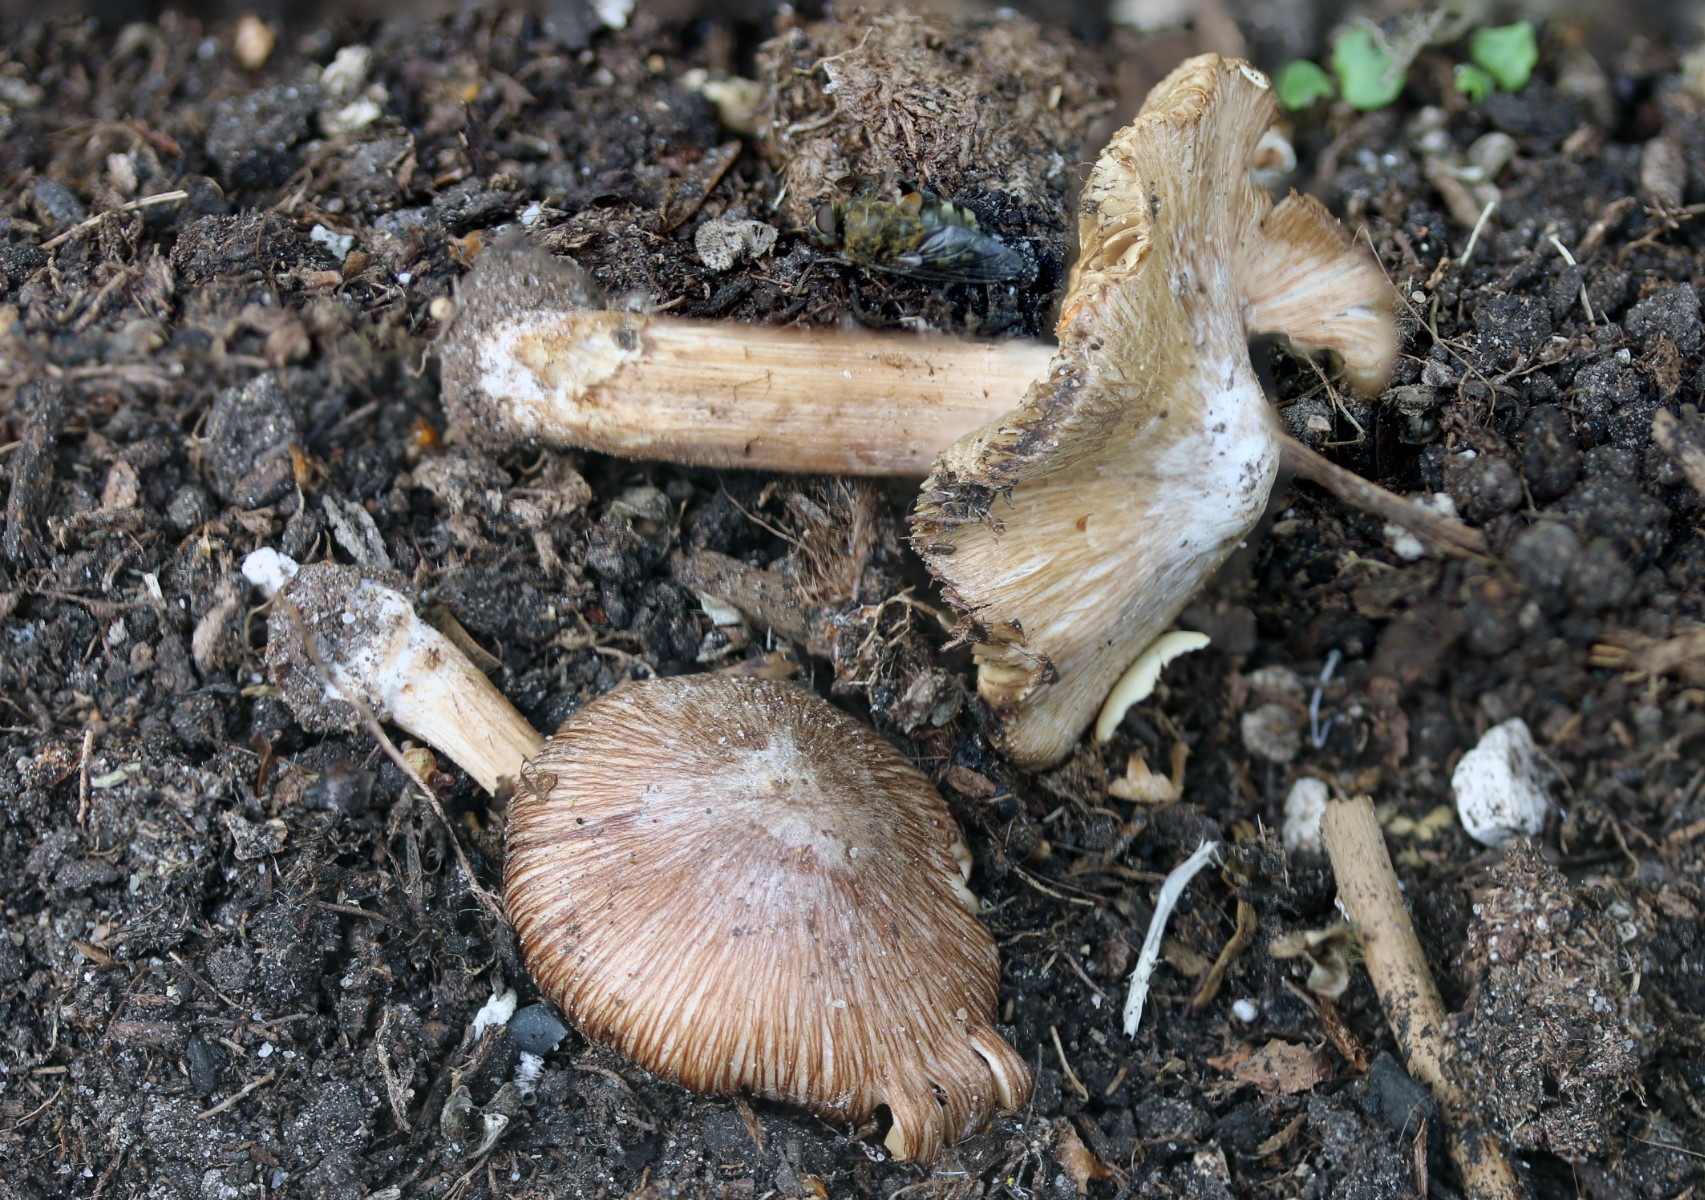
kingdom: Fungi
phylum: Basidiomycota
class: Agaricomycetes
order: Agaricales
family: Inocybaceae
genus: Inosperma
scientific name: Inosperma
